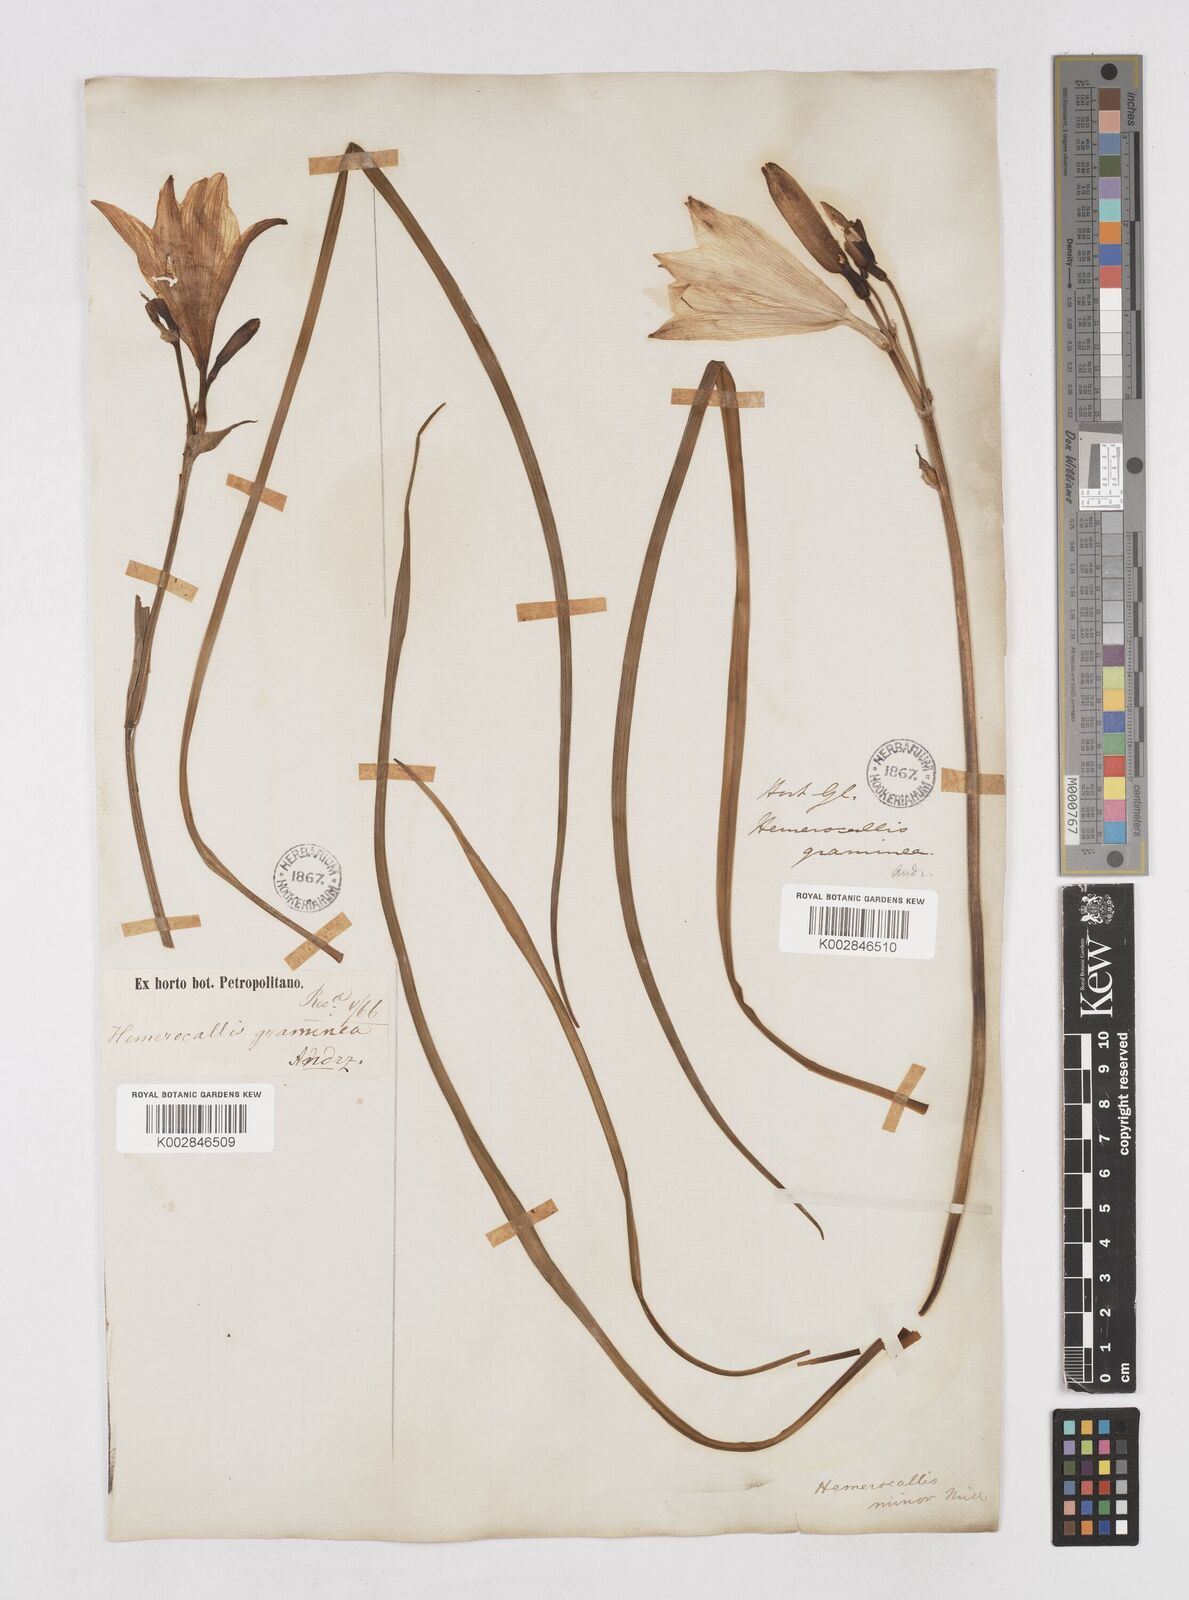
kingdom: Plantae
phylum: Tracheophyta
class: Liliopsida
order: Asparagales
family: Asphodelaceae
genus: Hemerocallis
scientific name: Hemerocallis minor
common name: Small daylily
